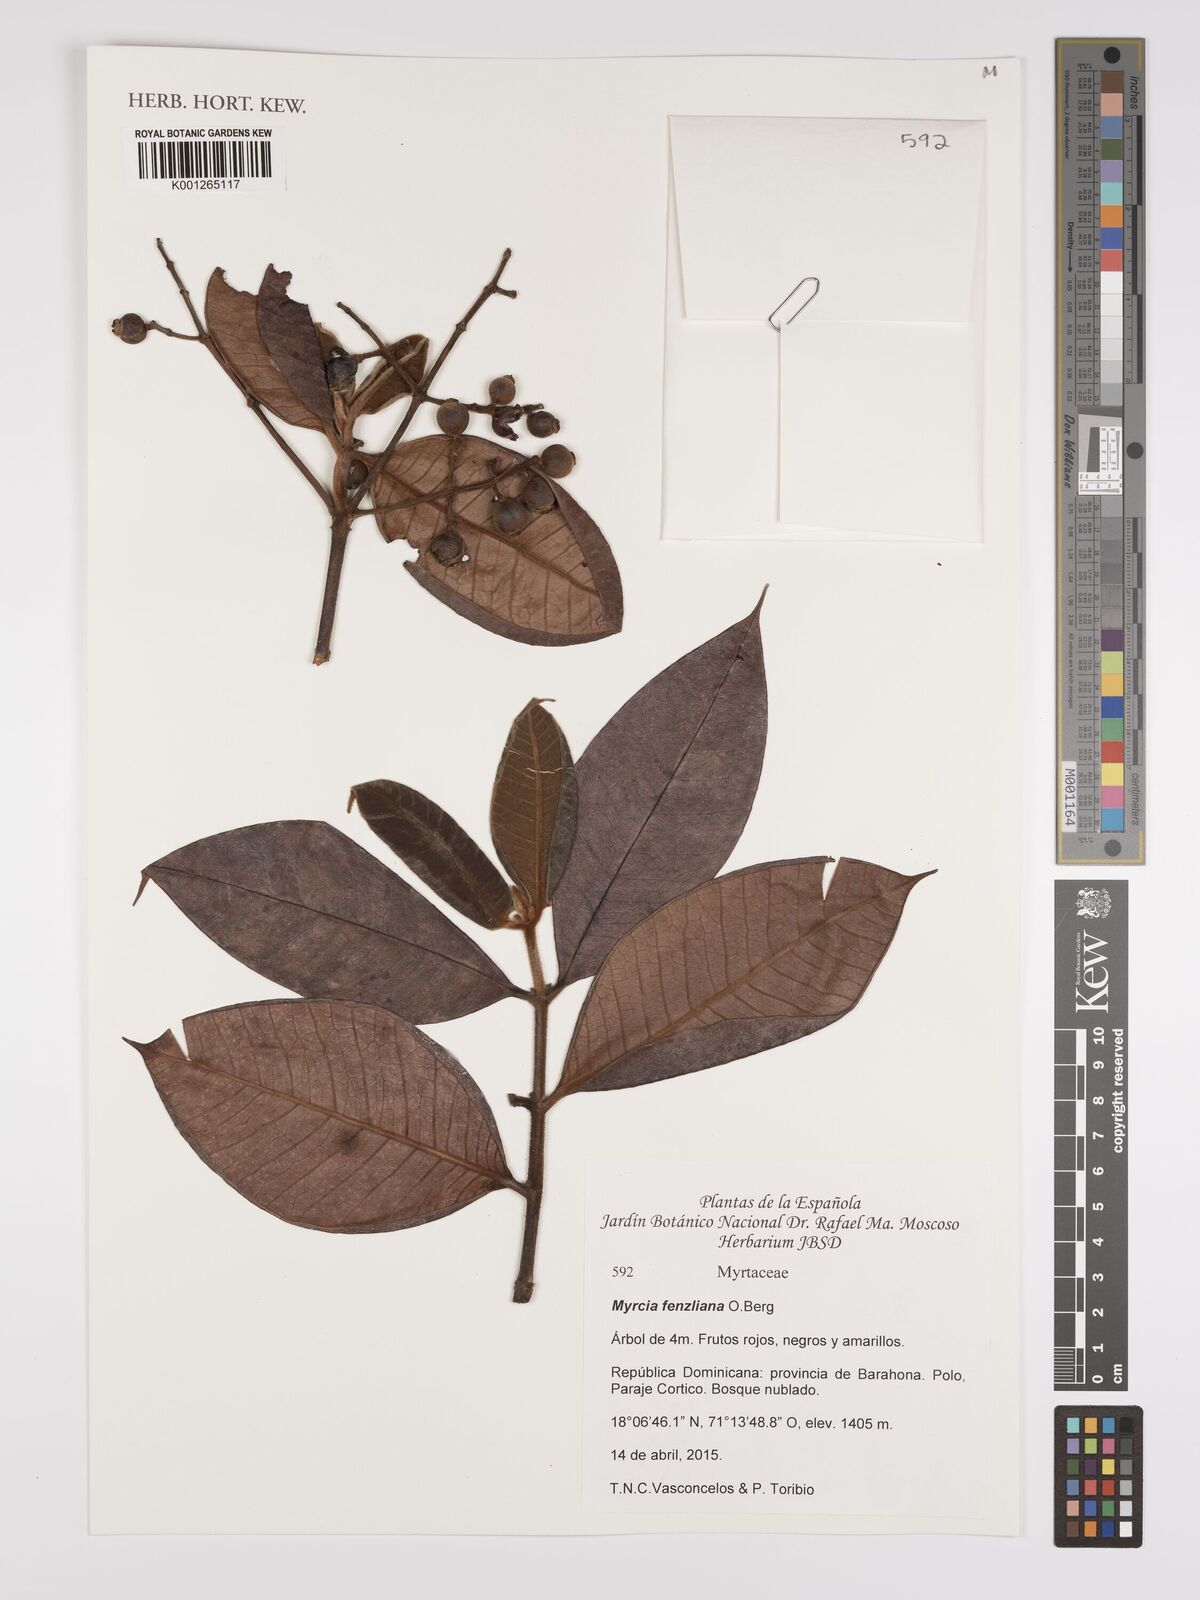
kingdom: Plantae
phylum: Tracheophyta
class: Magnoliopsida
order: Myrtales
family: Myrtaceae
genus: Myrcia
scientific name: Myrcia fenzliana
